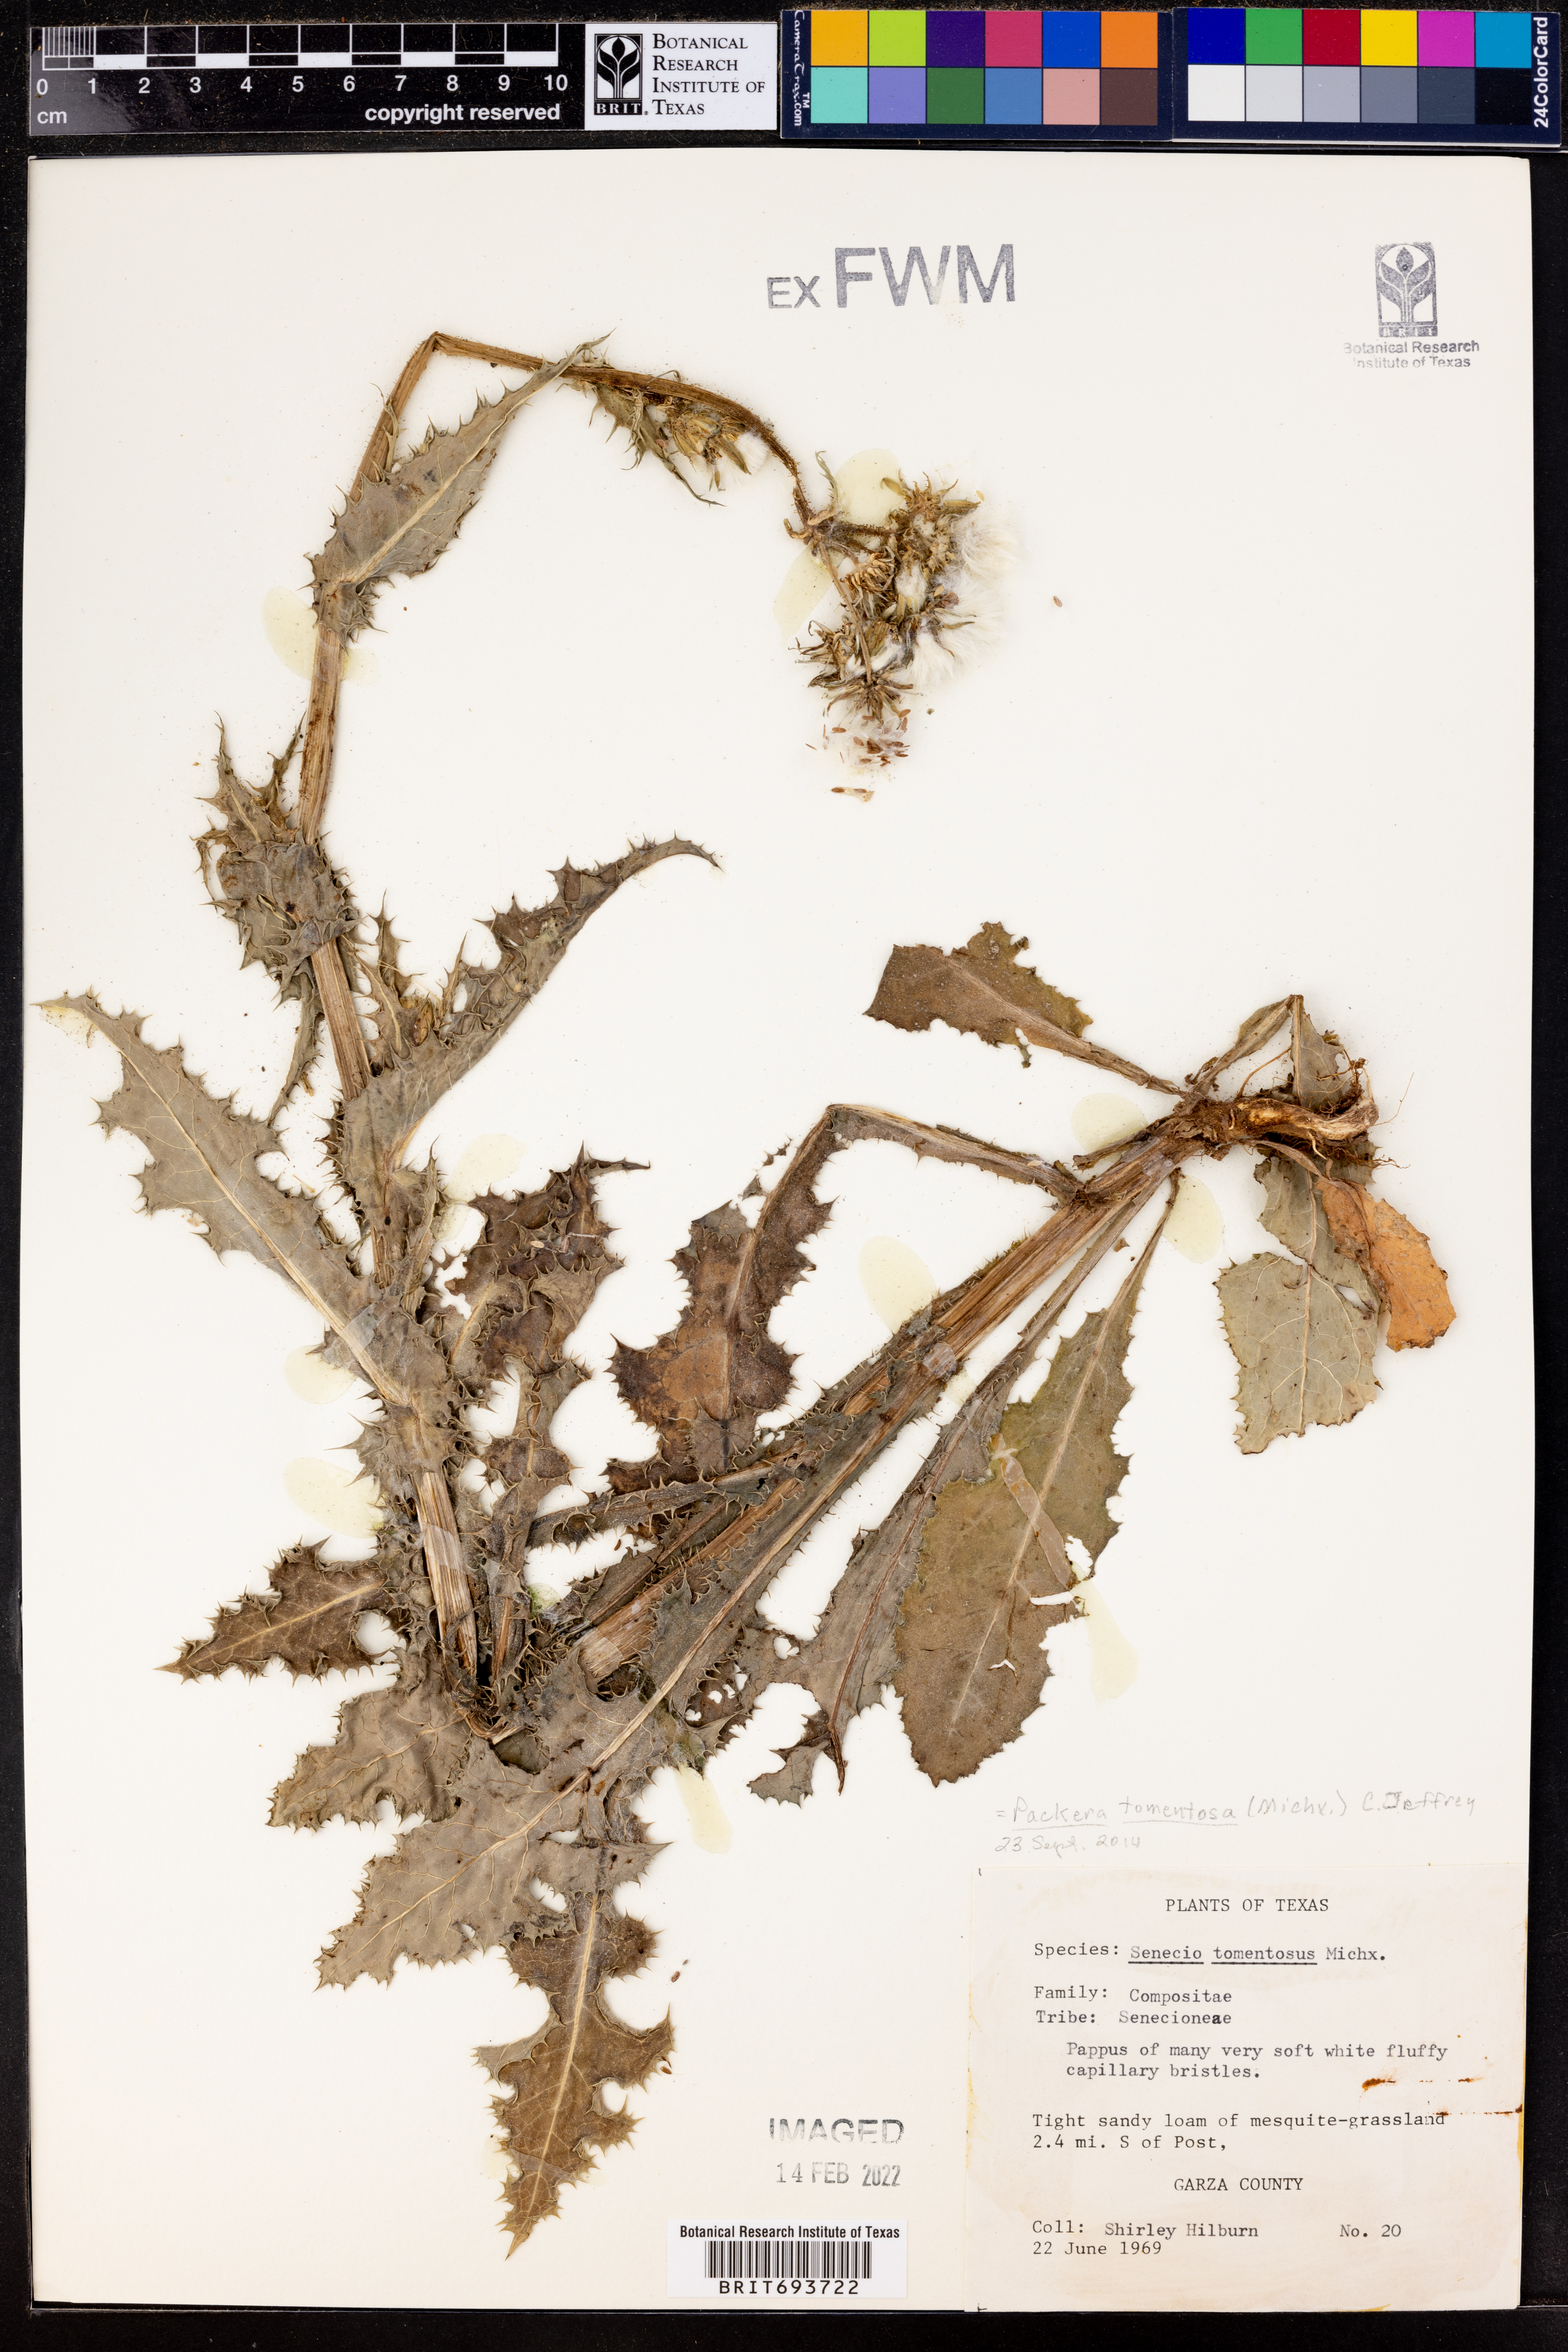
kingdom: Plantae
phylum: Tracheophyta
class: Magnoliopsida
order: Asterales
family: Asteraceae
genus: Packera
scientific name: Packera dubia
